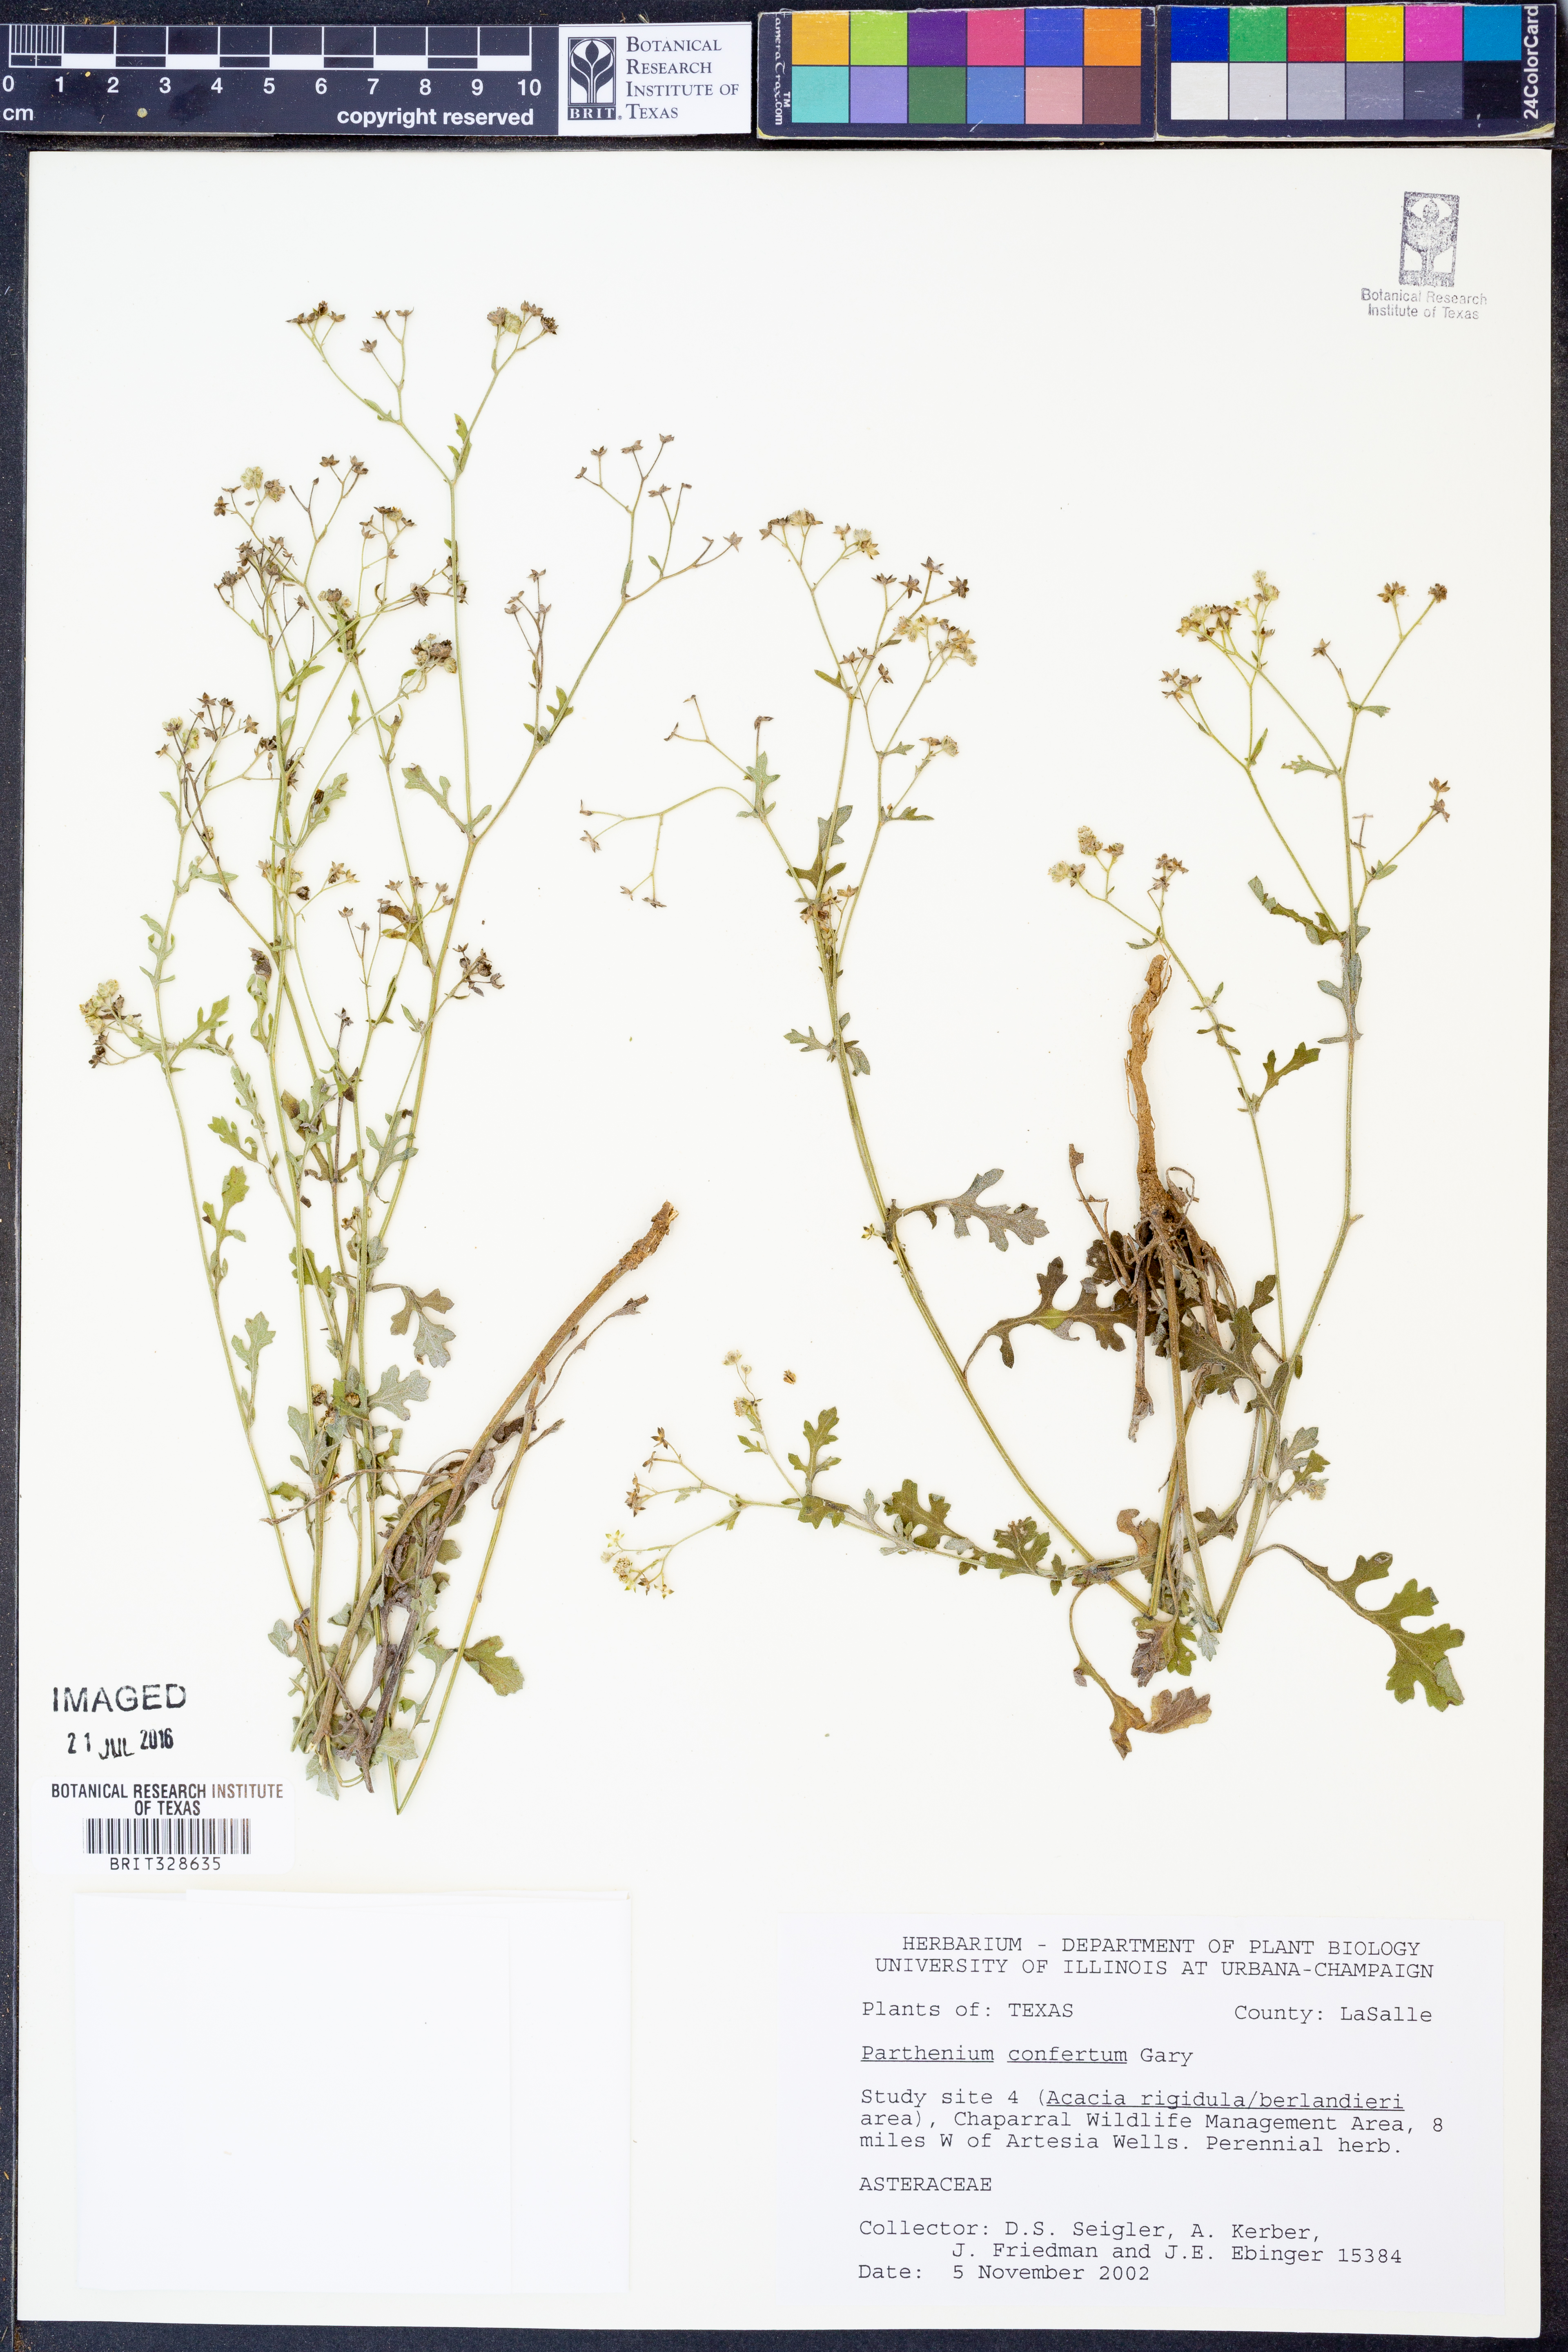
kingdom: Plantae
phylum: Tracheophyta
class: Magnoliopsida
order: Asterales
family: Asteraceae
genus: Parthenium
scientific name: Parthenium confertum
